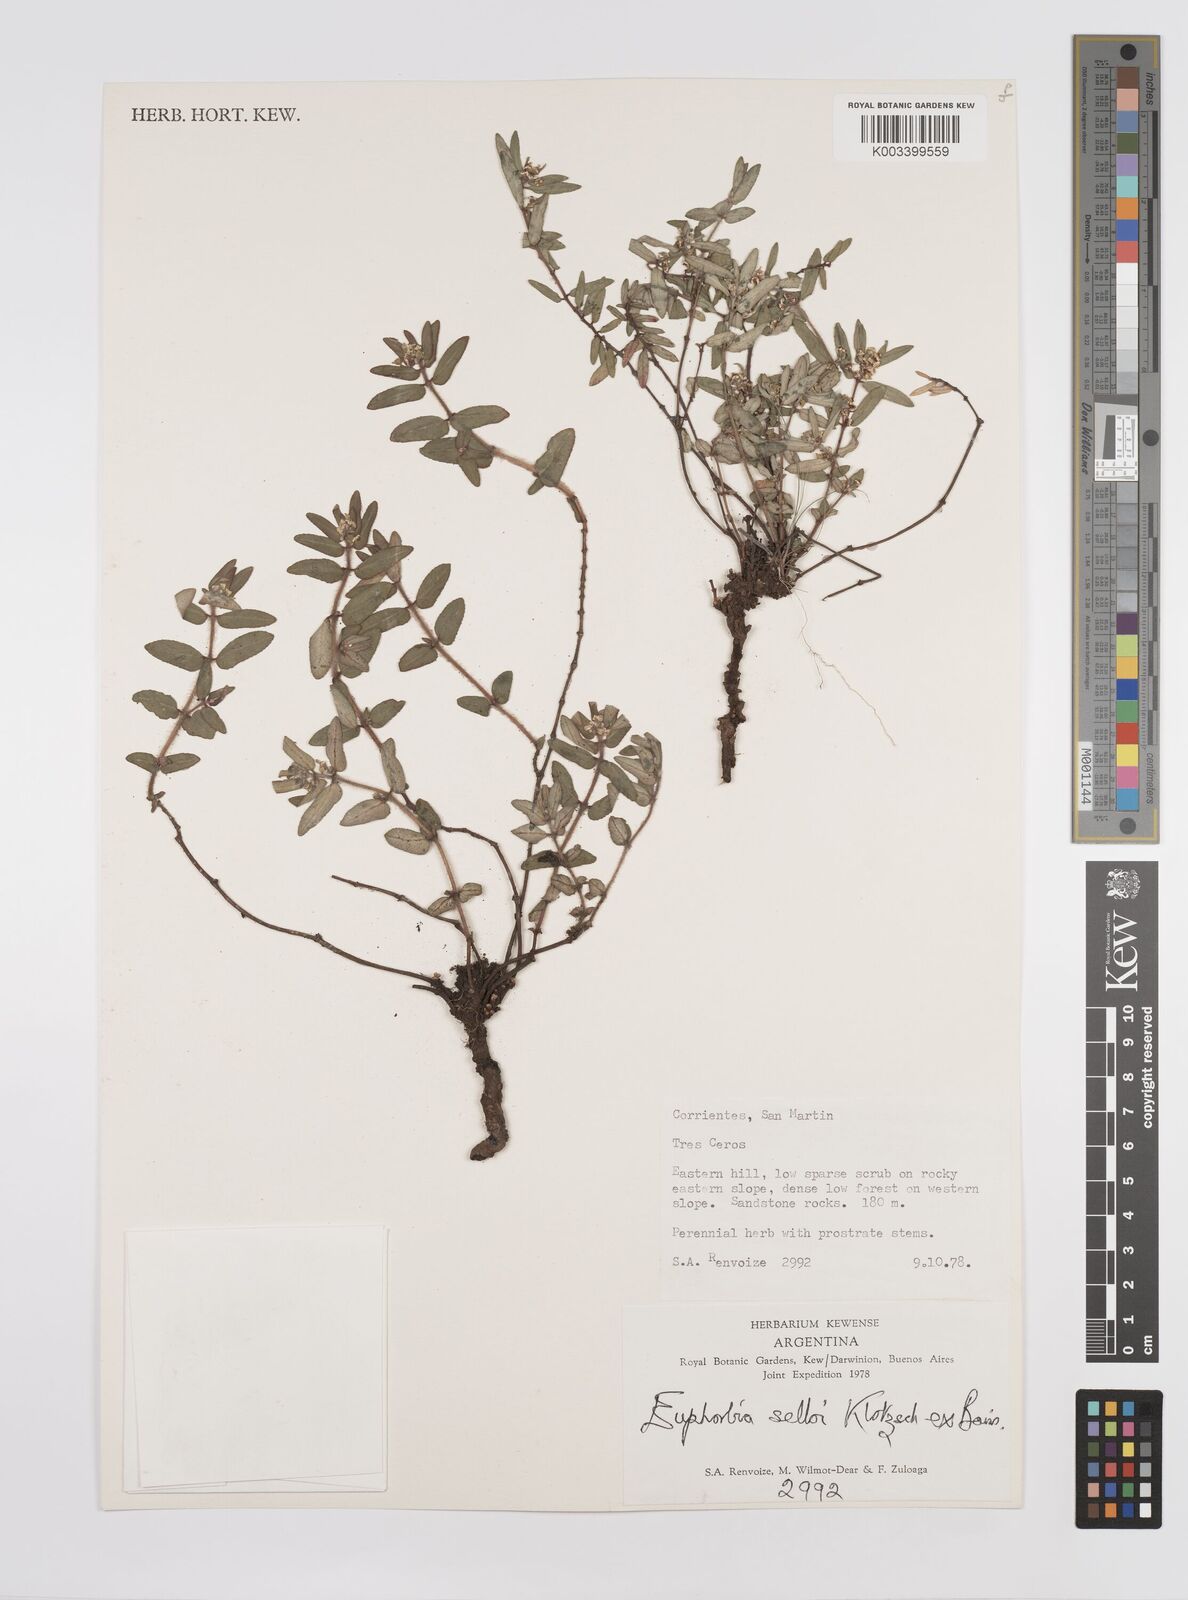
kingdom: Plantae
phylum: Tracheophyta
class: Magnoliopsida
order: Malpighiales
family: Euphorbiaceae
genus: Euphorbia
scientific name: Euphorbia selloi
